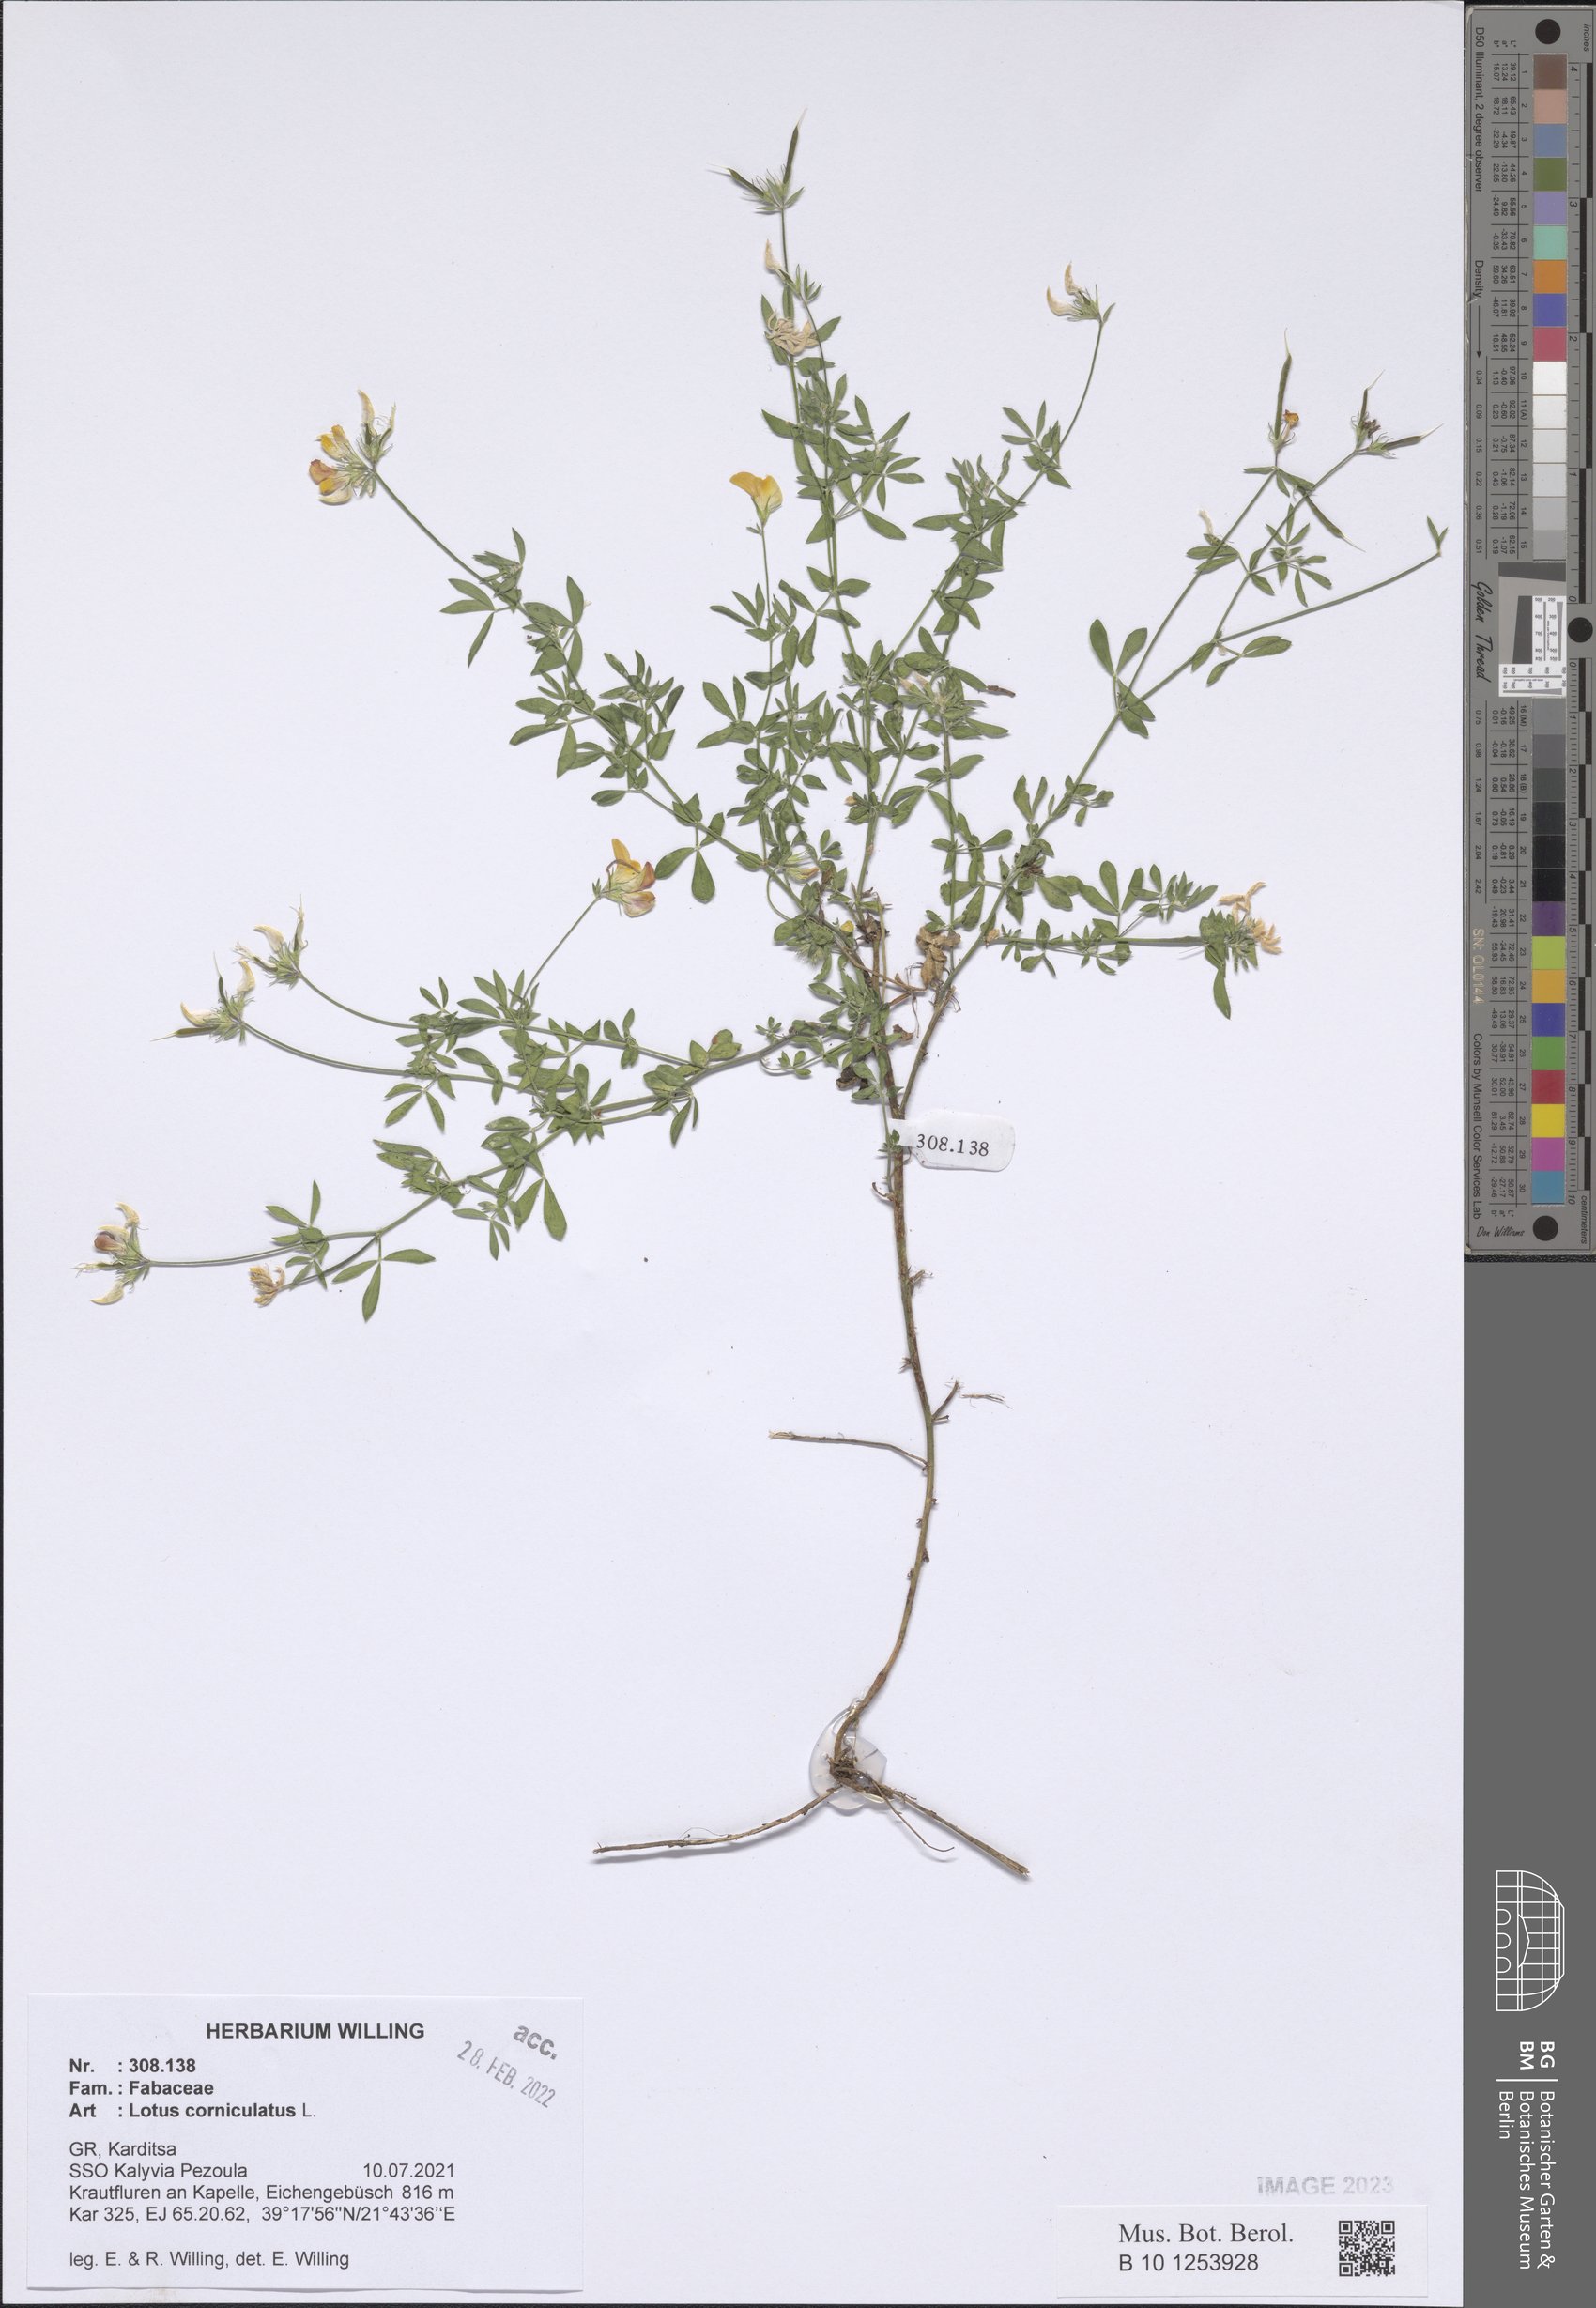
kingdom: Plantae
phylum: Tracheophyta
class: Magnoliopsida
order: Fabales
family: Fabaceae
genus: Lotus
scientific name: Lotus corniculatus
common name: Common bird's-foot-trefoil
